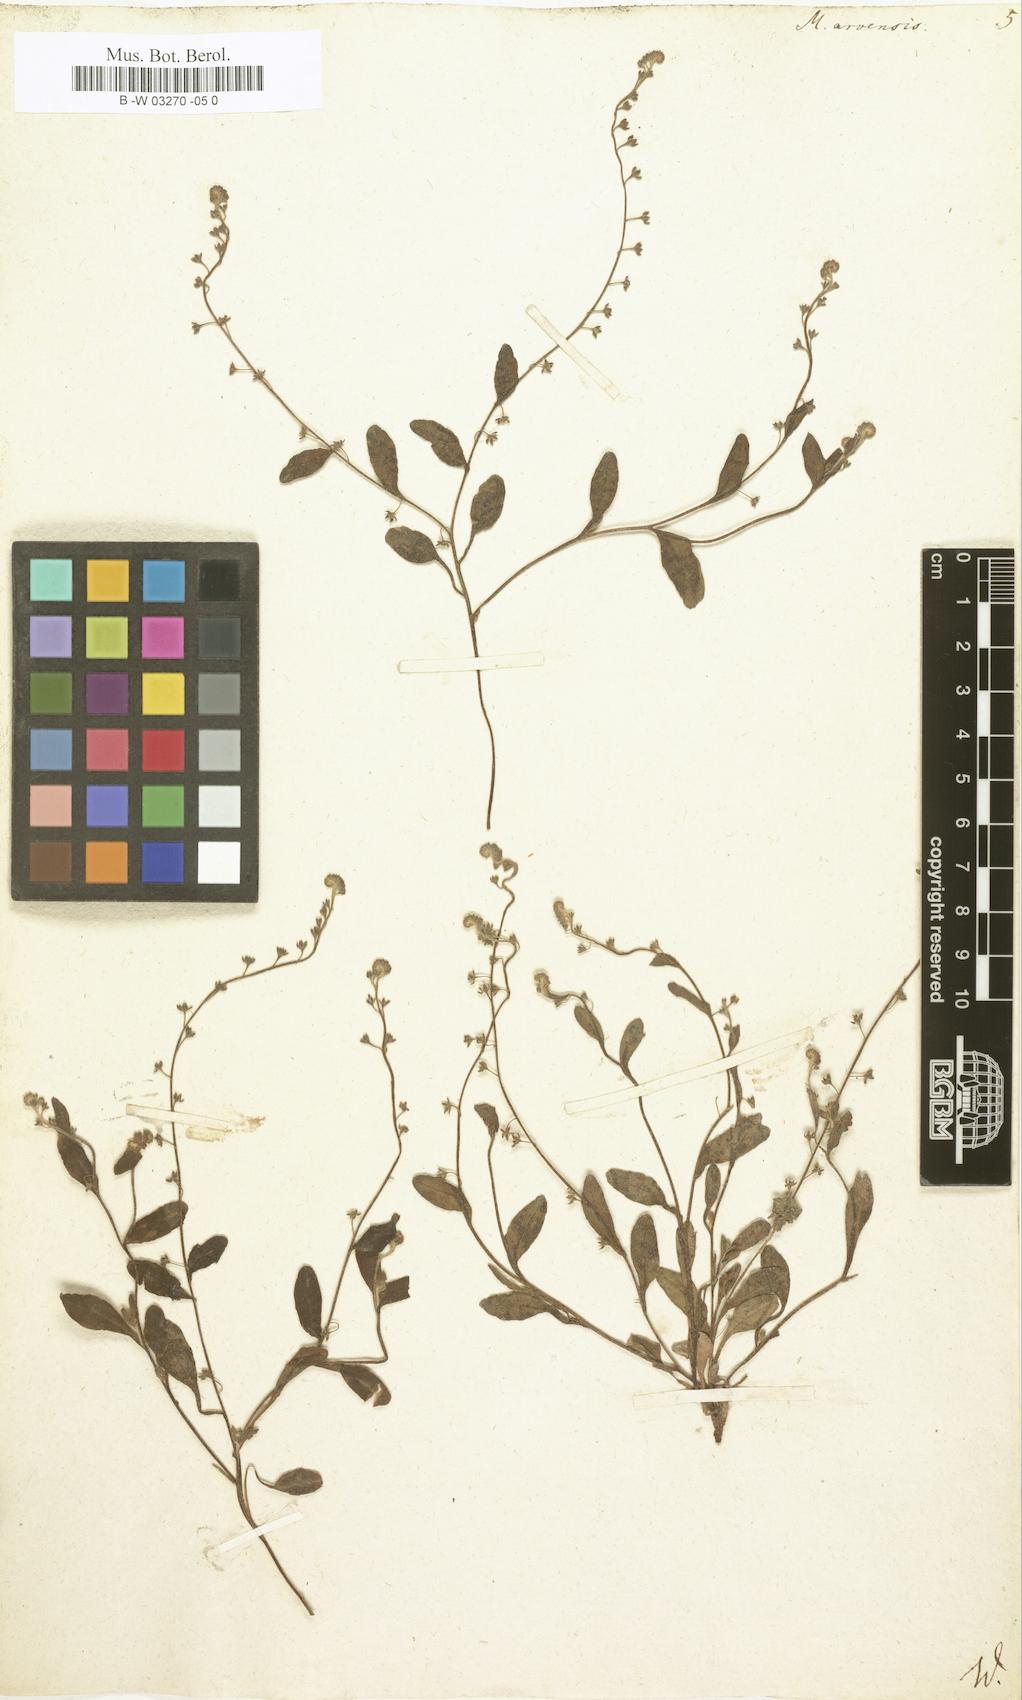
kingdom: Plantae
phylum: Tracheophyta
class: Magnoliopsida
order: Boraginales
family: Boraginaceae
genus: Myosotis
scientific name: Myosotis arvensis
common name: Field forget-me-not
